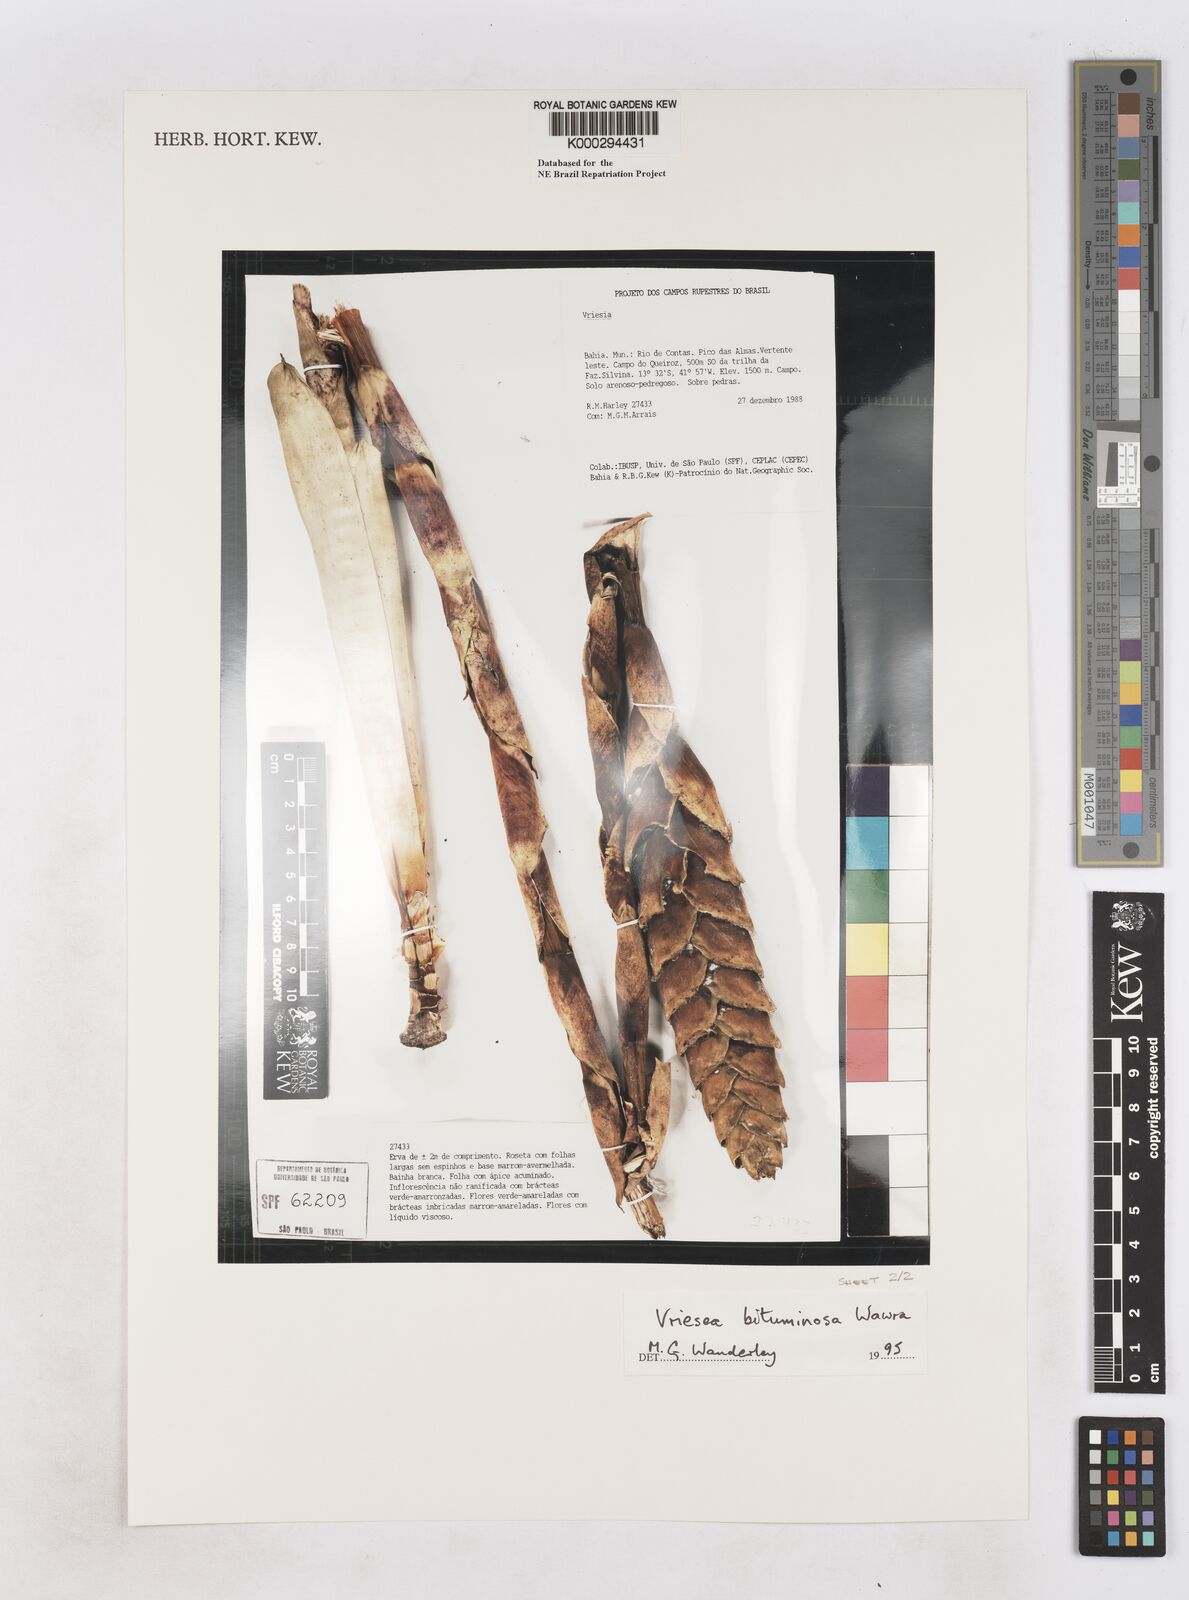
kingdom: Plantae
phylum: Tracheophyta
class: Liliopsida
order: Poales
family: Bromeliaceae
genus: Vriesea
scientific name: Vriesea bituminosa
